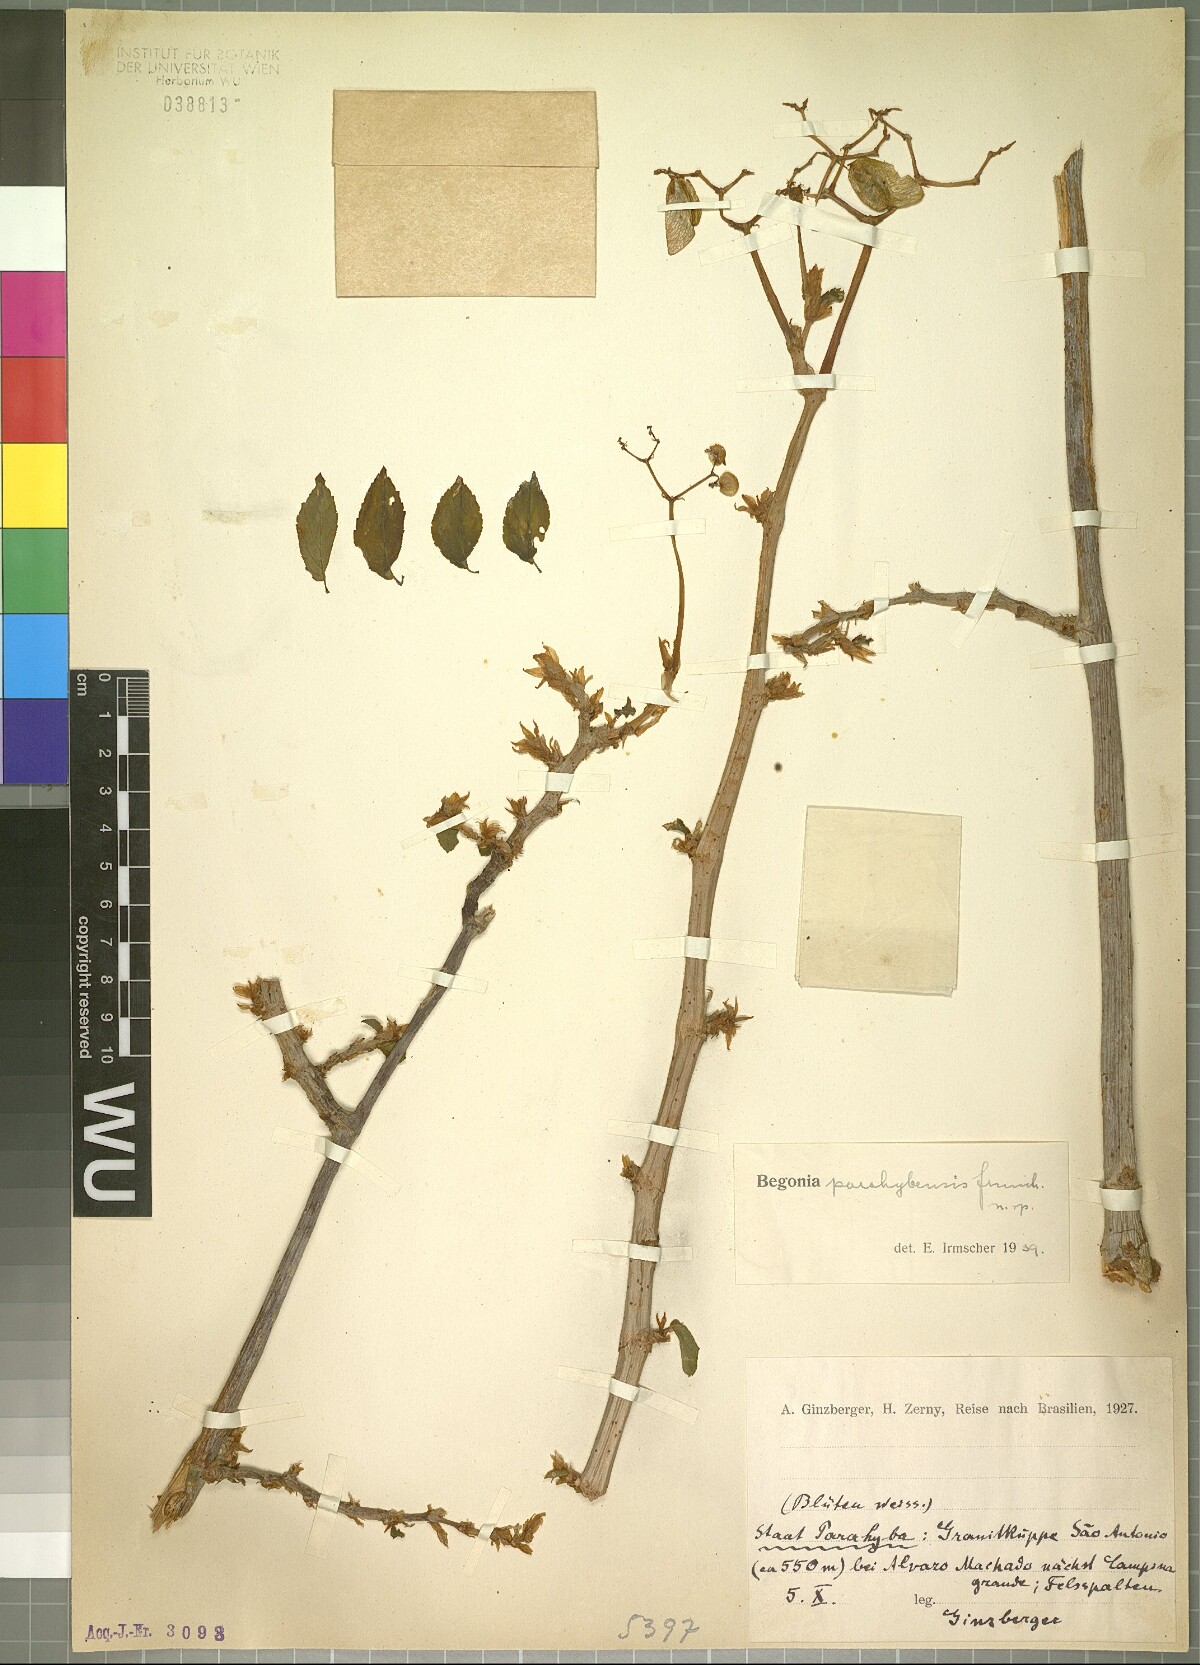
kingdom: Plantae
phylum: Tracheophyta
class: Magnoliopsida
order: Cucurbitales
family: Begoniaceae
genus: Begonia
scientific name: Begonia
